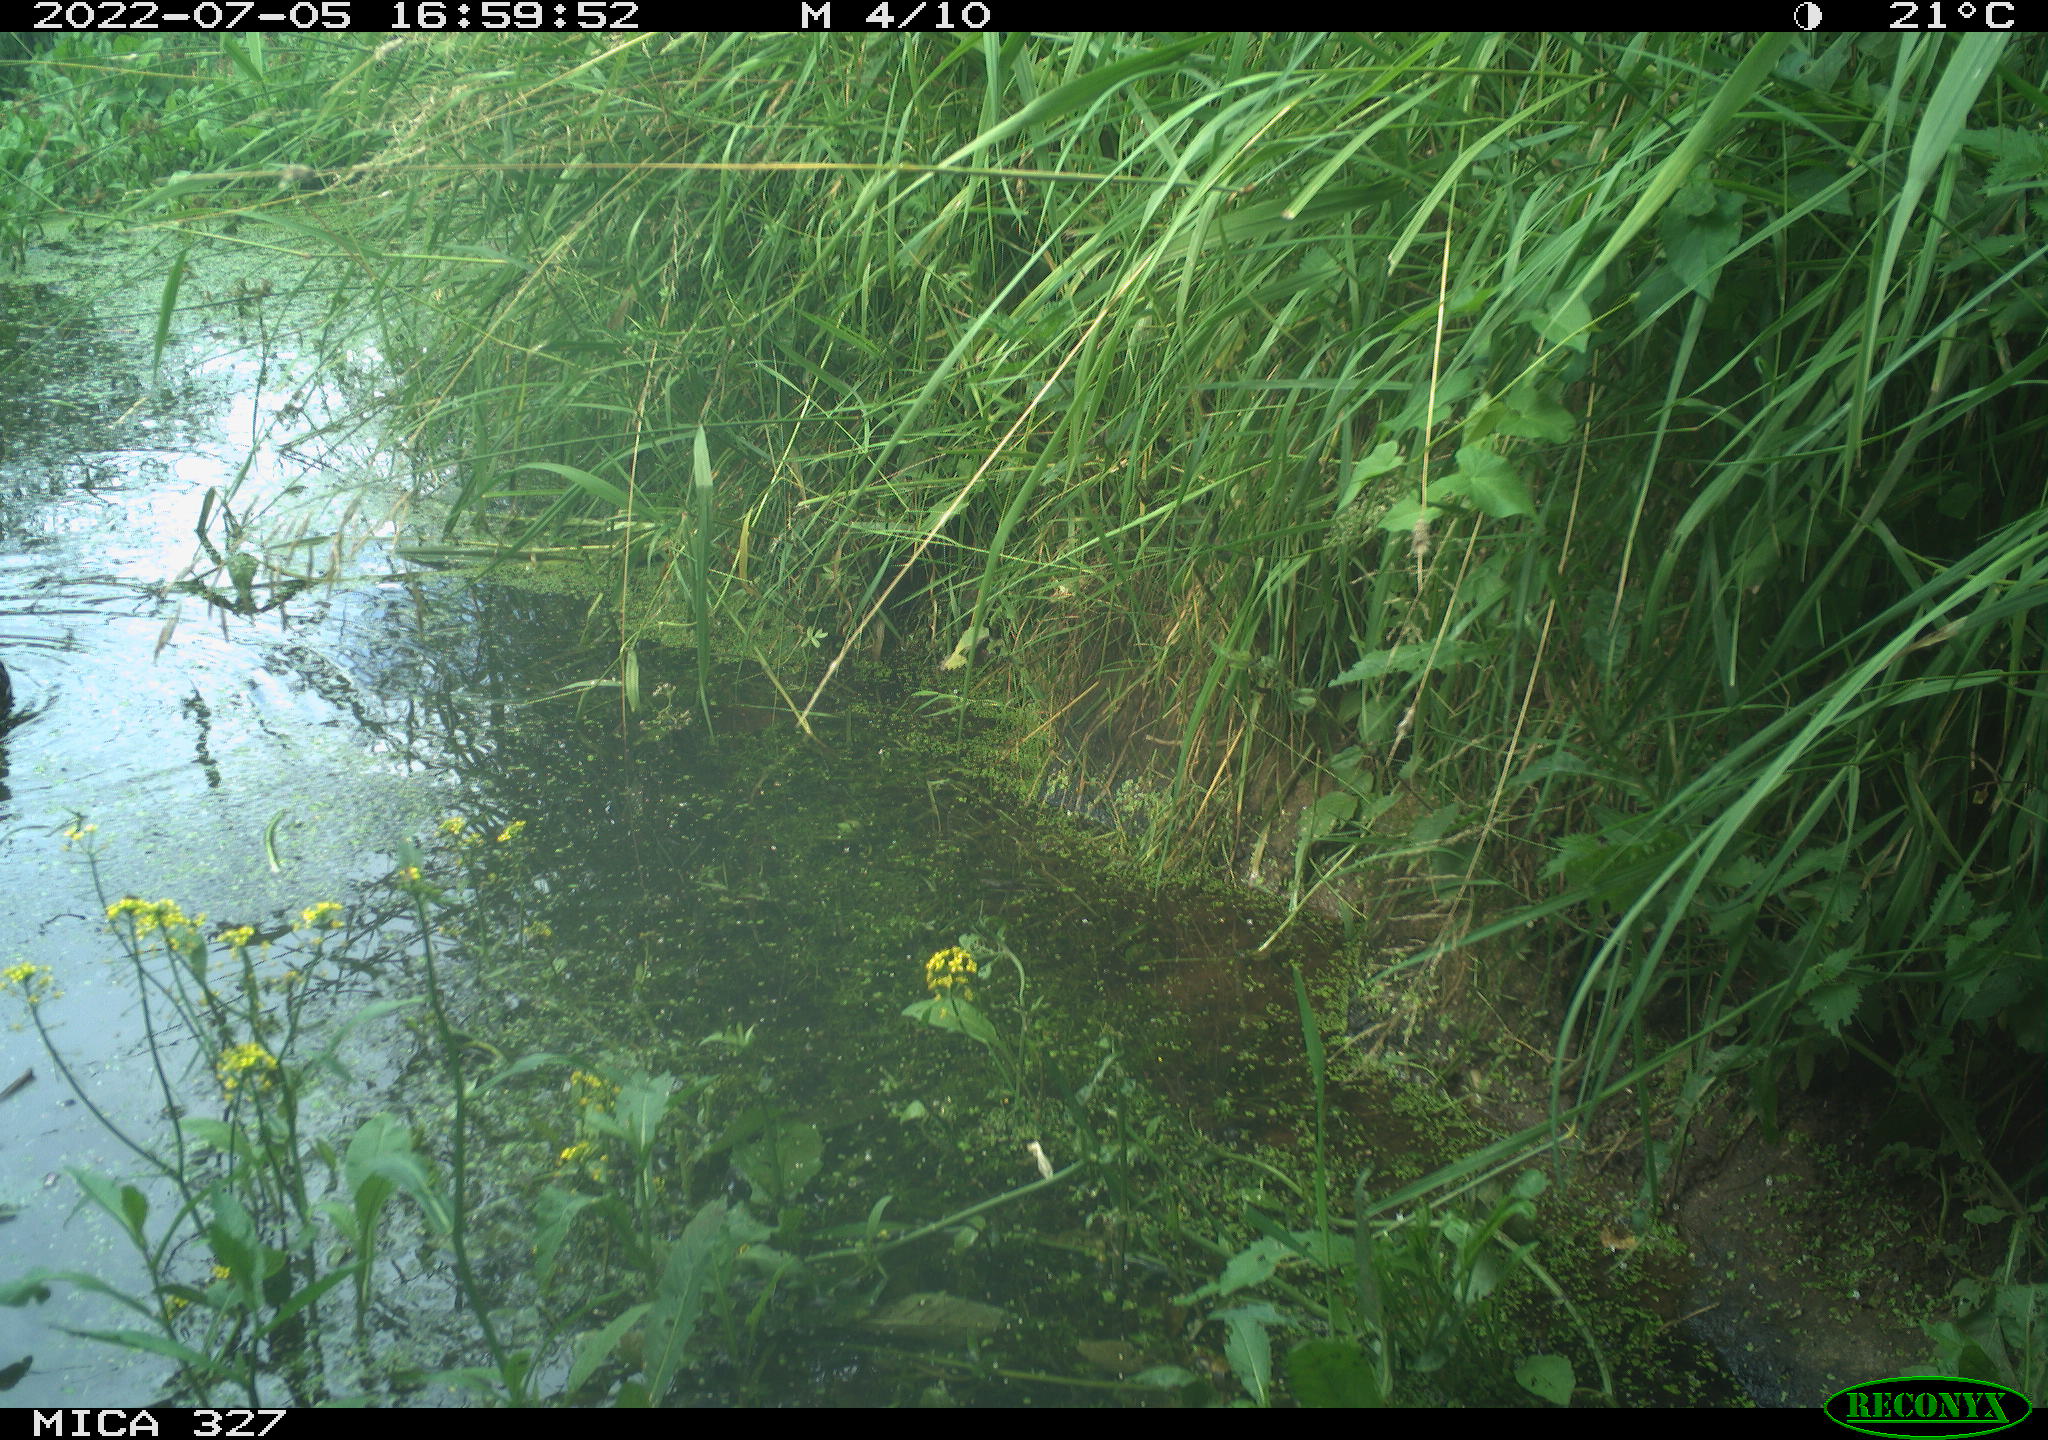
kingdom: Animalia
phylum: Chordata
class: Aves
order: Gruiformes
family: Rallidae
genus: Gallinula
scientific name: Gallinula chloropus
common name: Common moorhen
